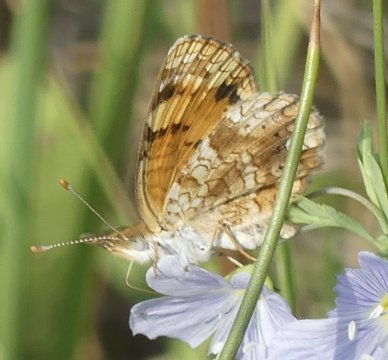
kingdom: Animalia
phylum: Arthropoda
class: Insecta
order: Lepidoptera
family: Nymphalidae
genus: Chlosyne
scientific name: Chlosyne gorgone
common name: Gorgone Checkerspot
